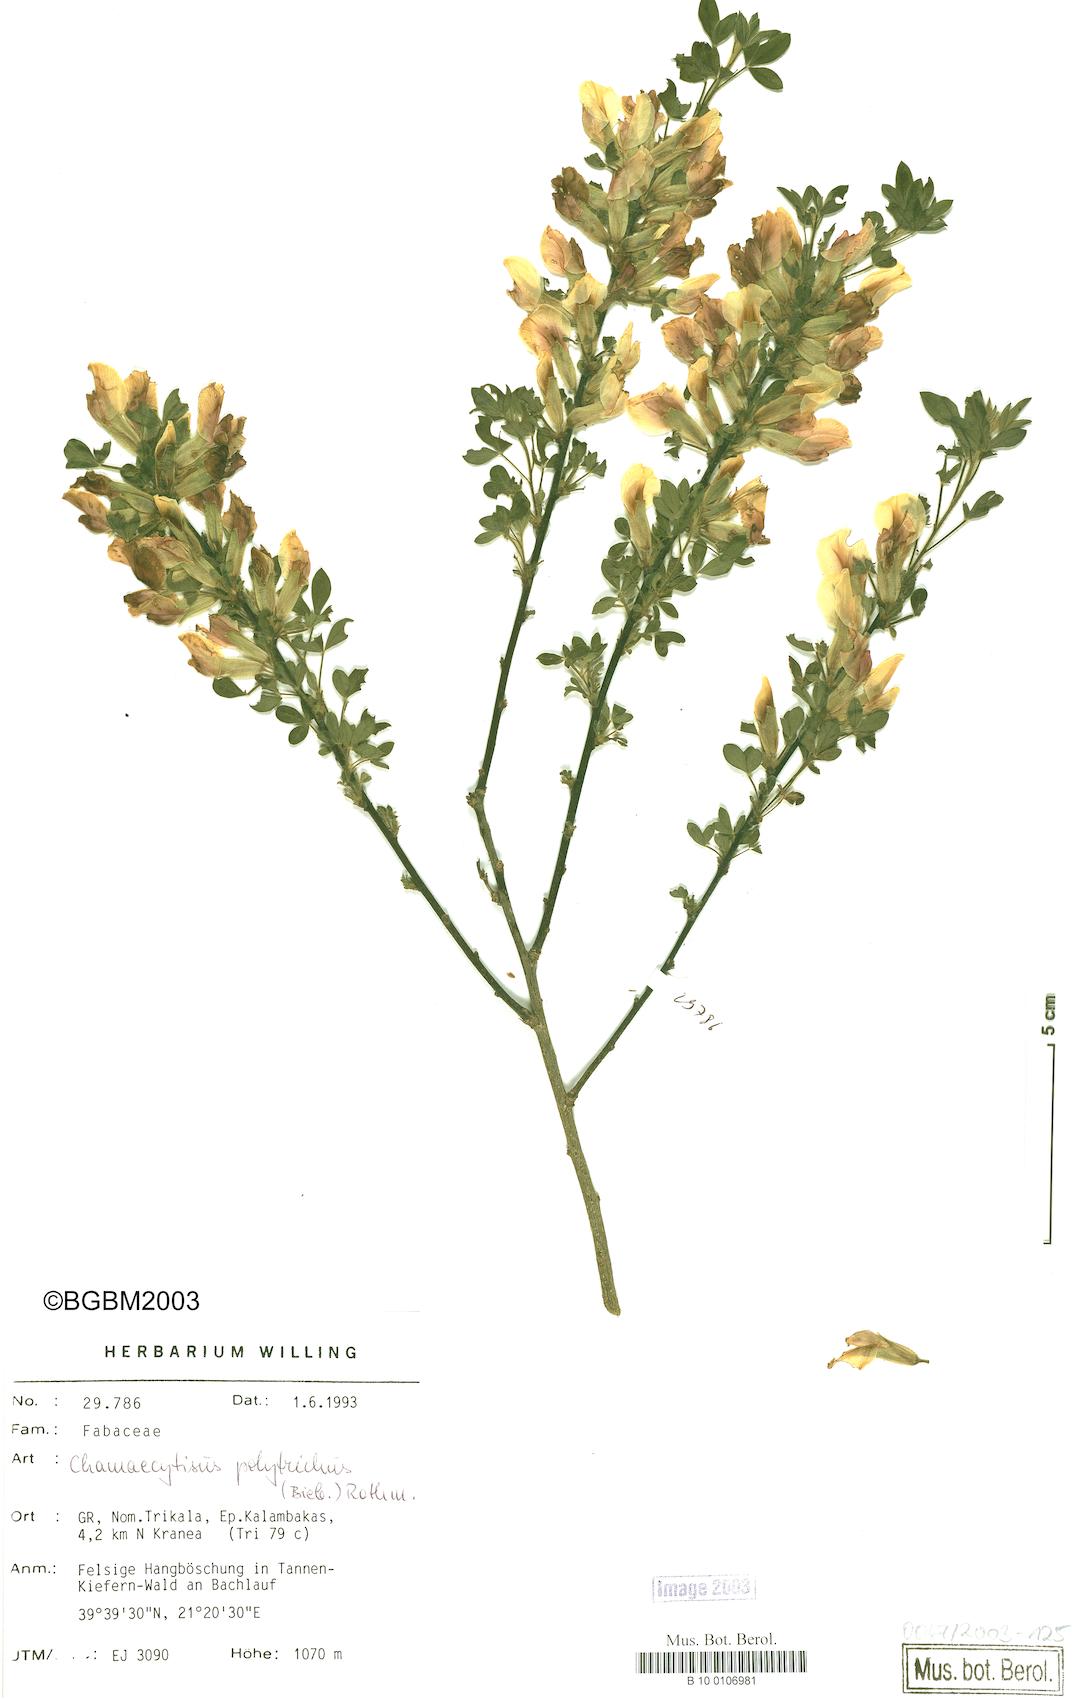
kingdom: Plantae
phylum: Tracheophyta
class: Magnoliopsida
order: Fabales
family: Fabaceae
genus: Chamaecytisus
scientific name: Chamaecytisus hirsutus
